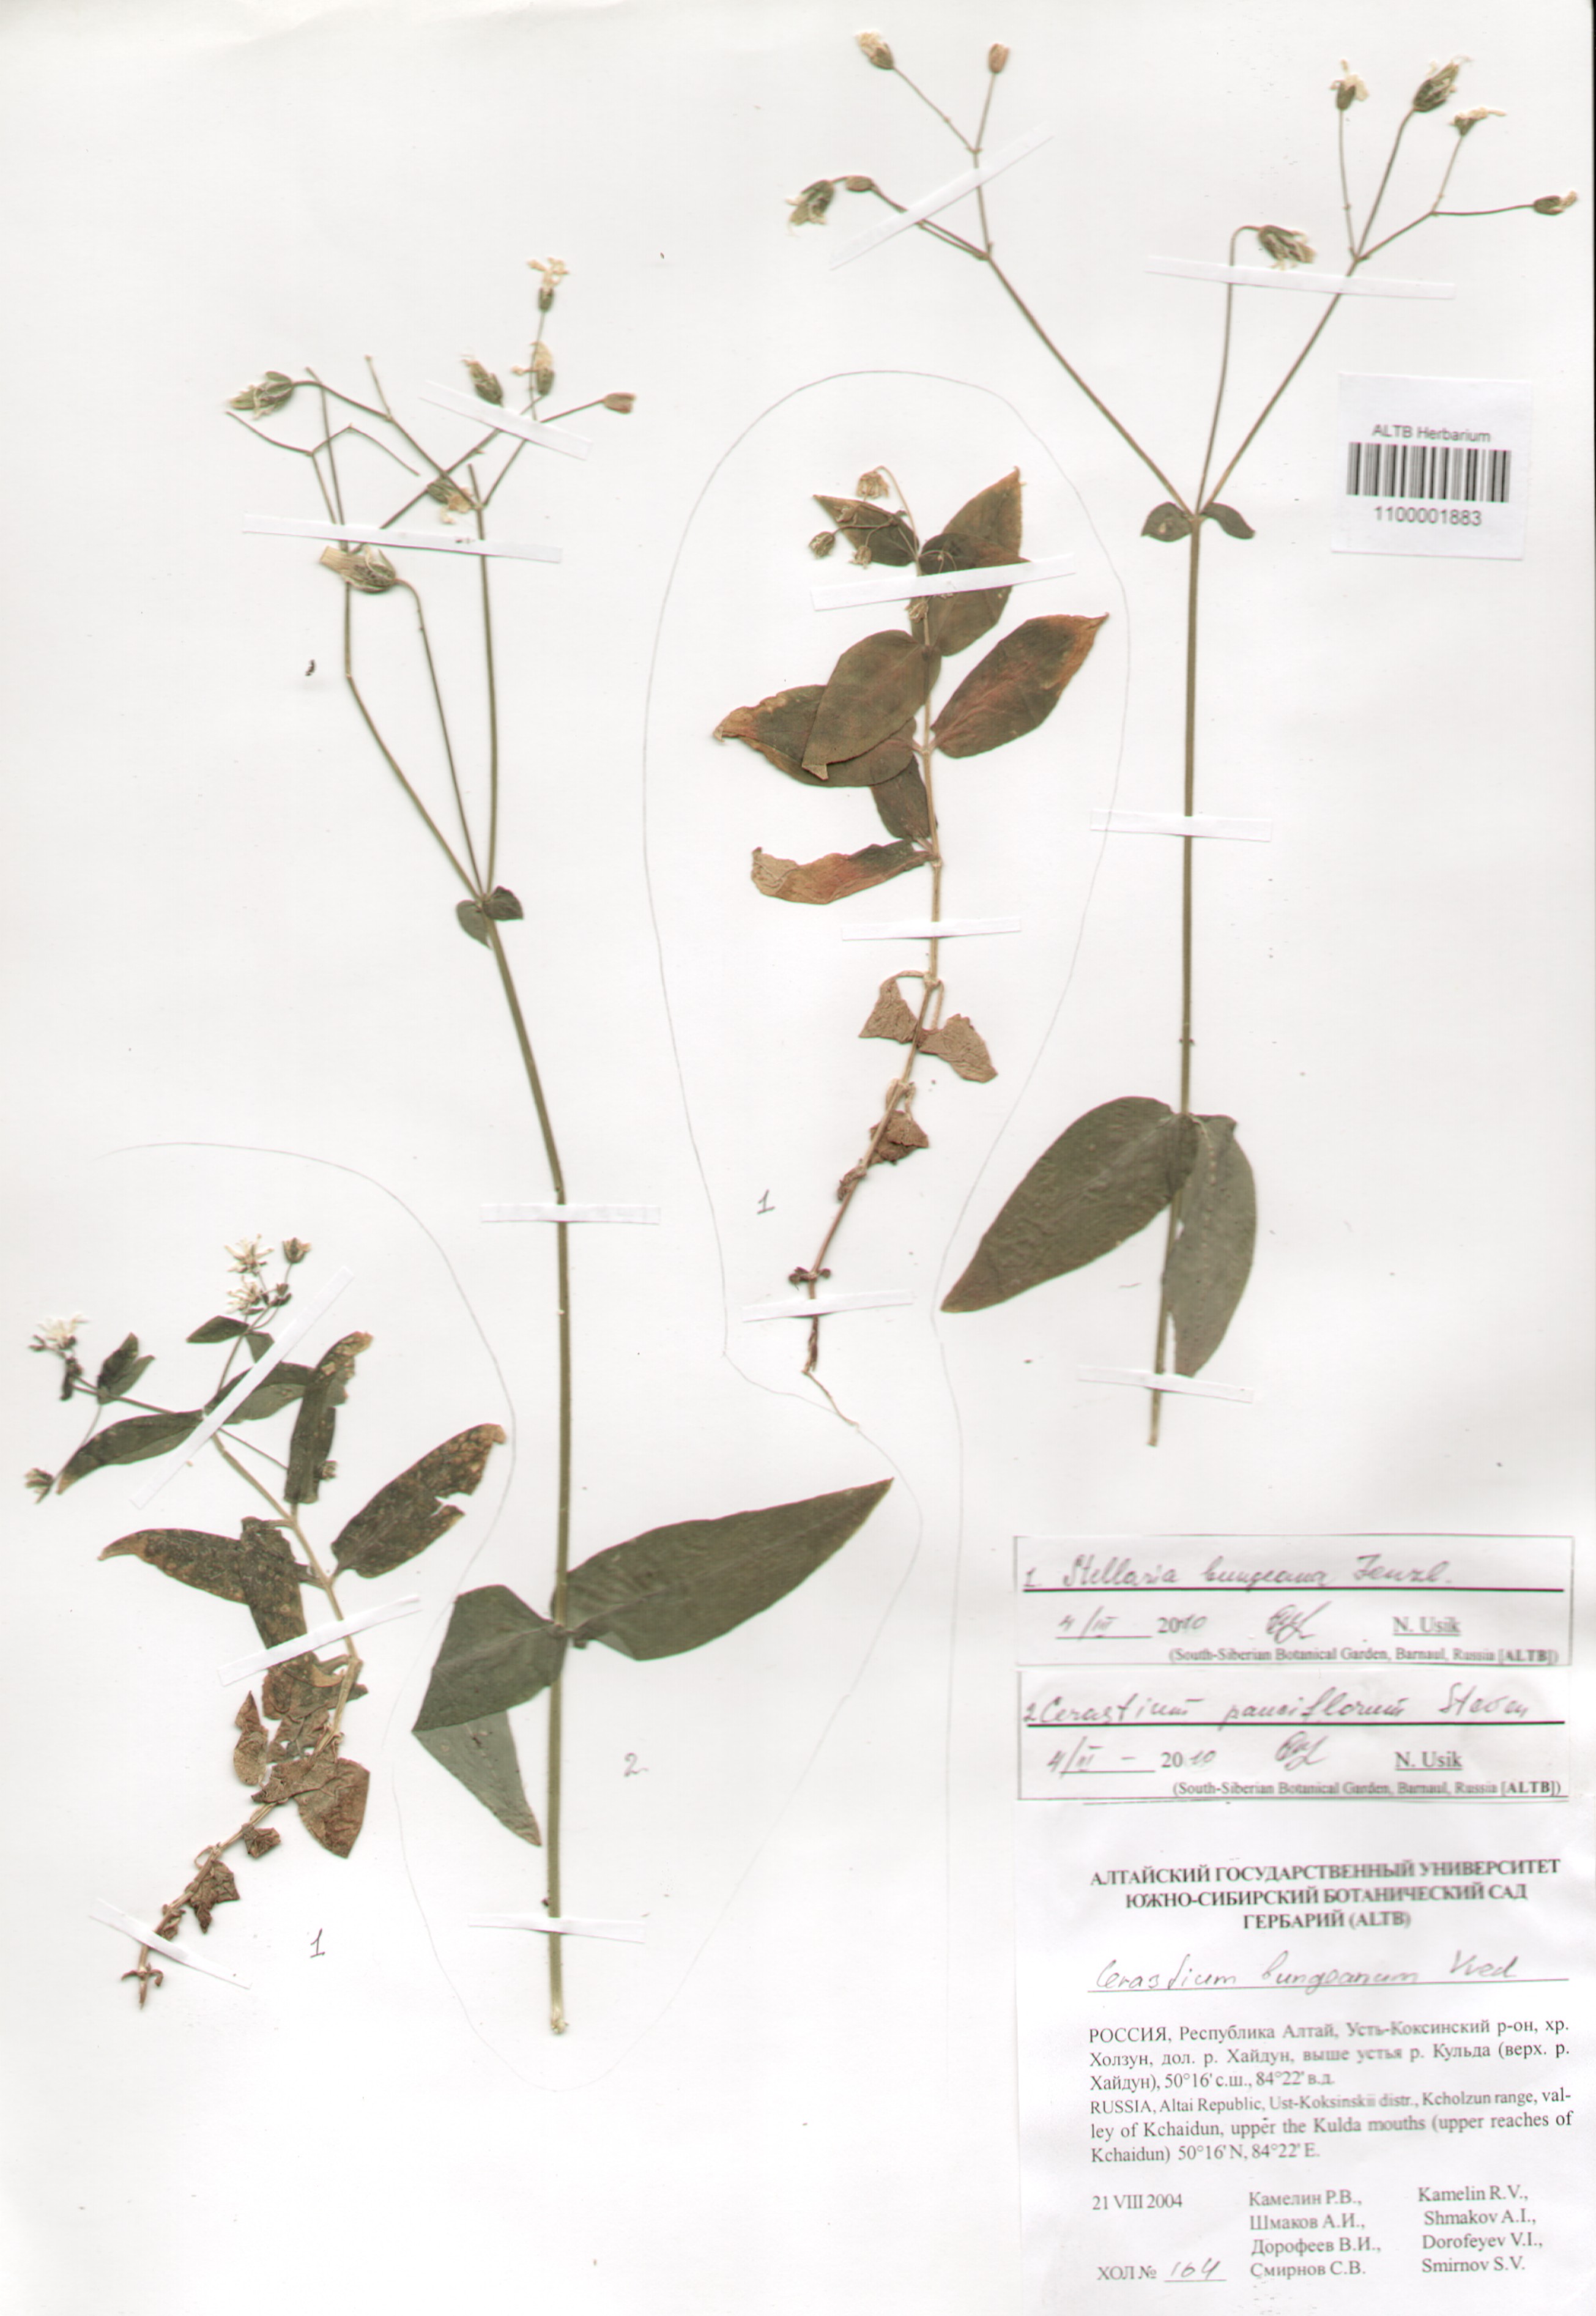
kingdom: Plantae
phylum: Tracheophyta
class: Magnoliopsida
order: Caryophyllales
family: Caryophyllaceae
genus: Cerastium
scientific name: Cerastium pauciflorum
